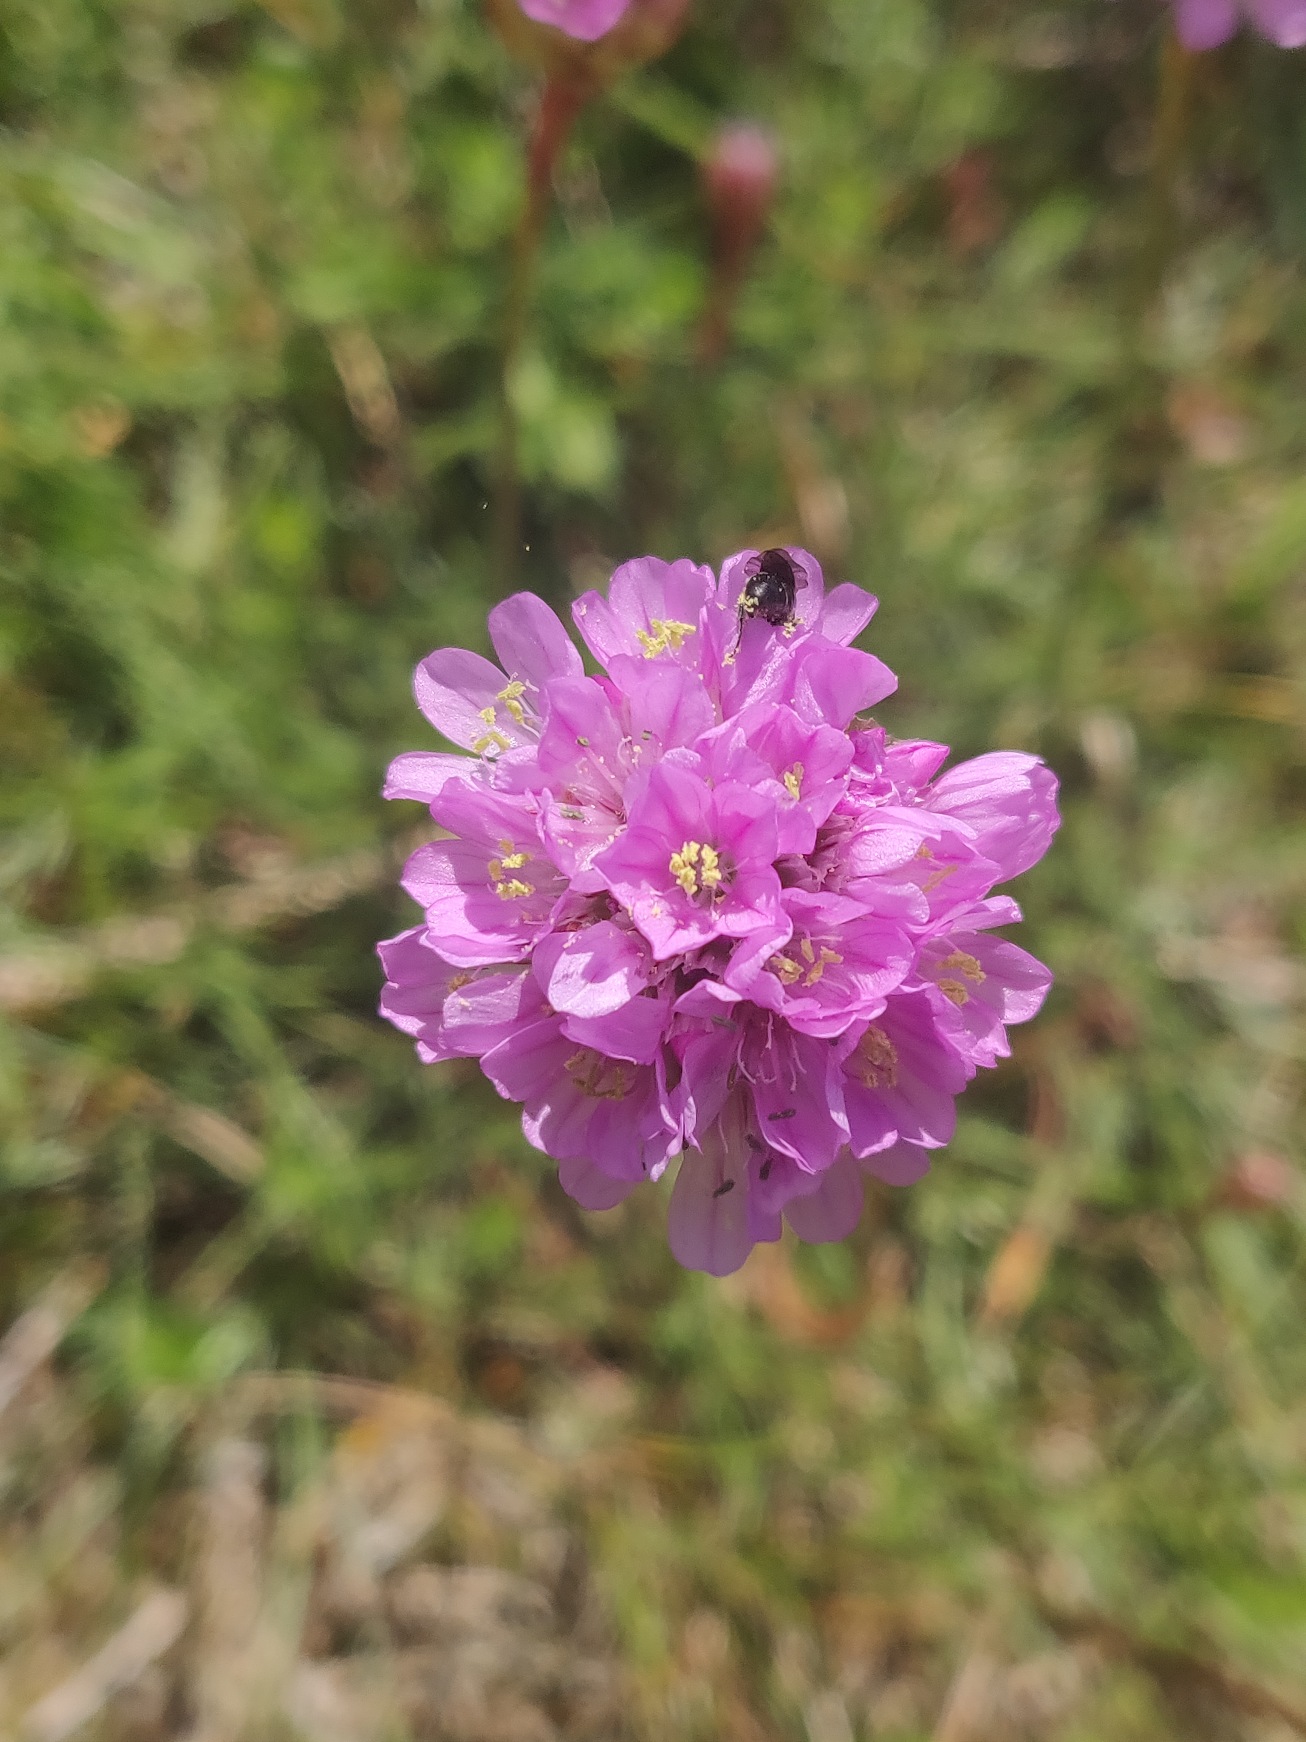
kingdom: Plantae
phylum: Tracheophyta
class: Magnoliopsida
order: Caryophyllales
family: Plumbaginaceae
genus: Armeria
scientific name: Armeria maritima
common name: Engelskgræs
